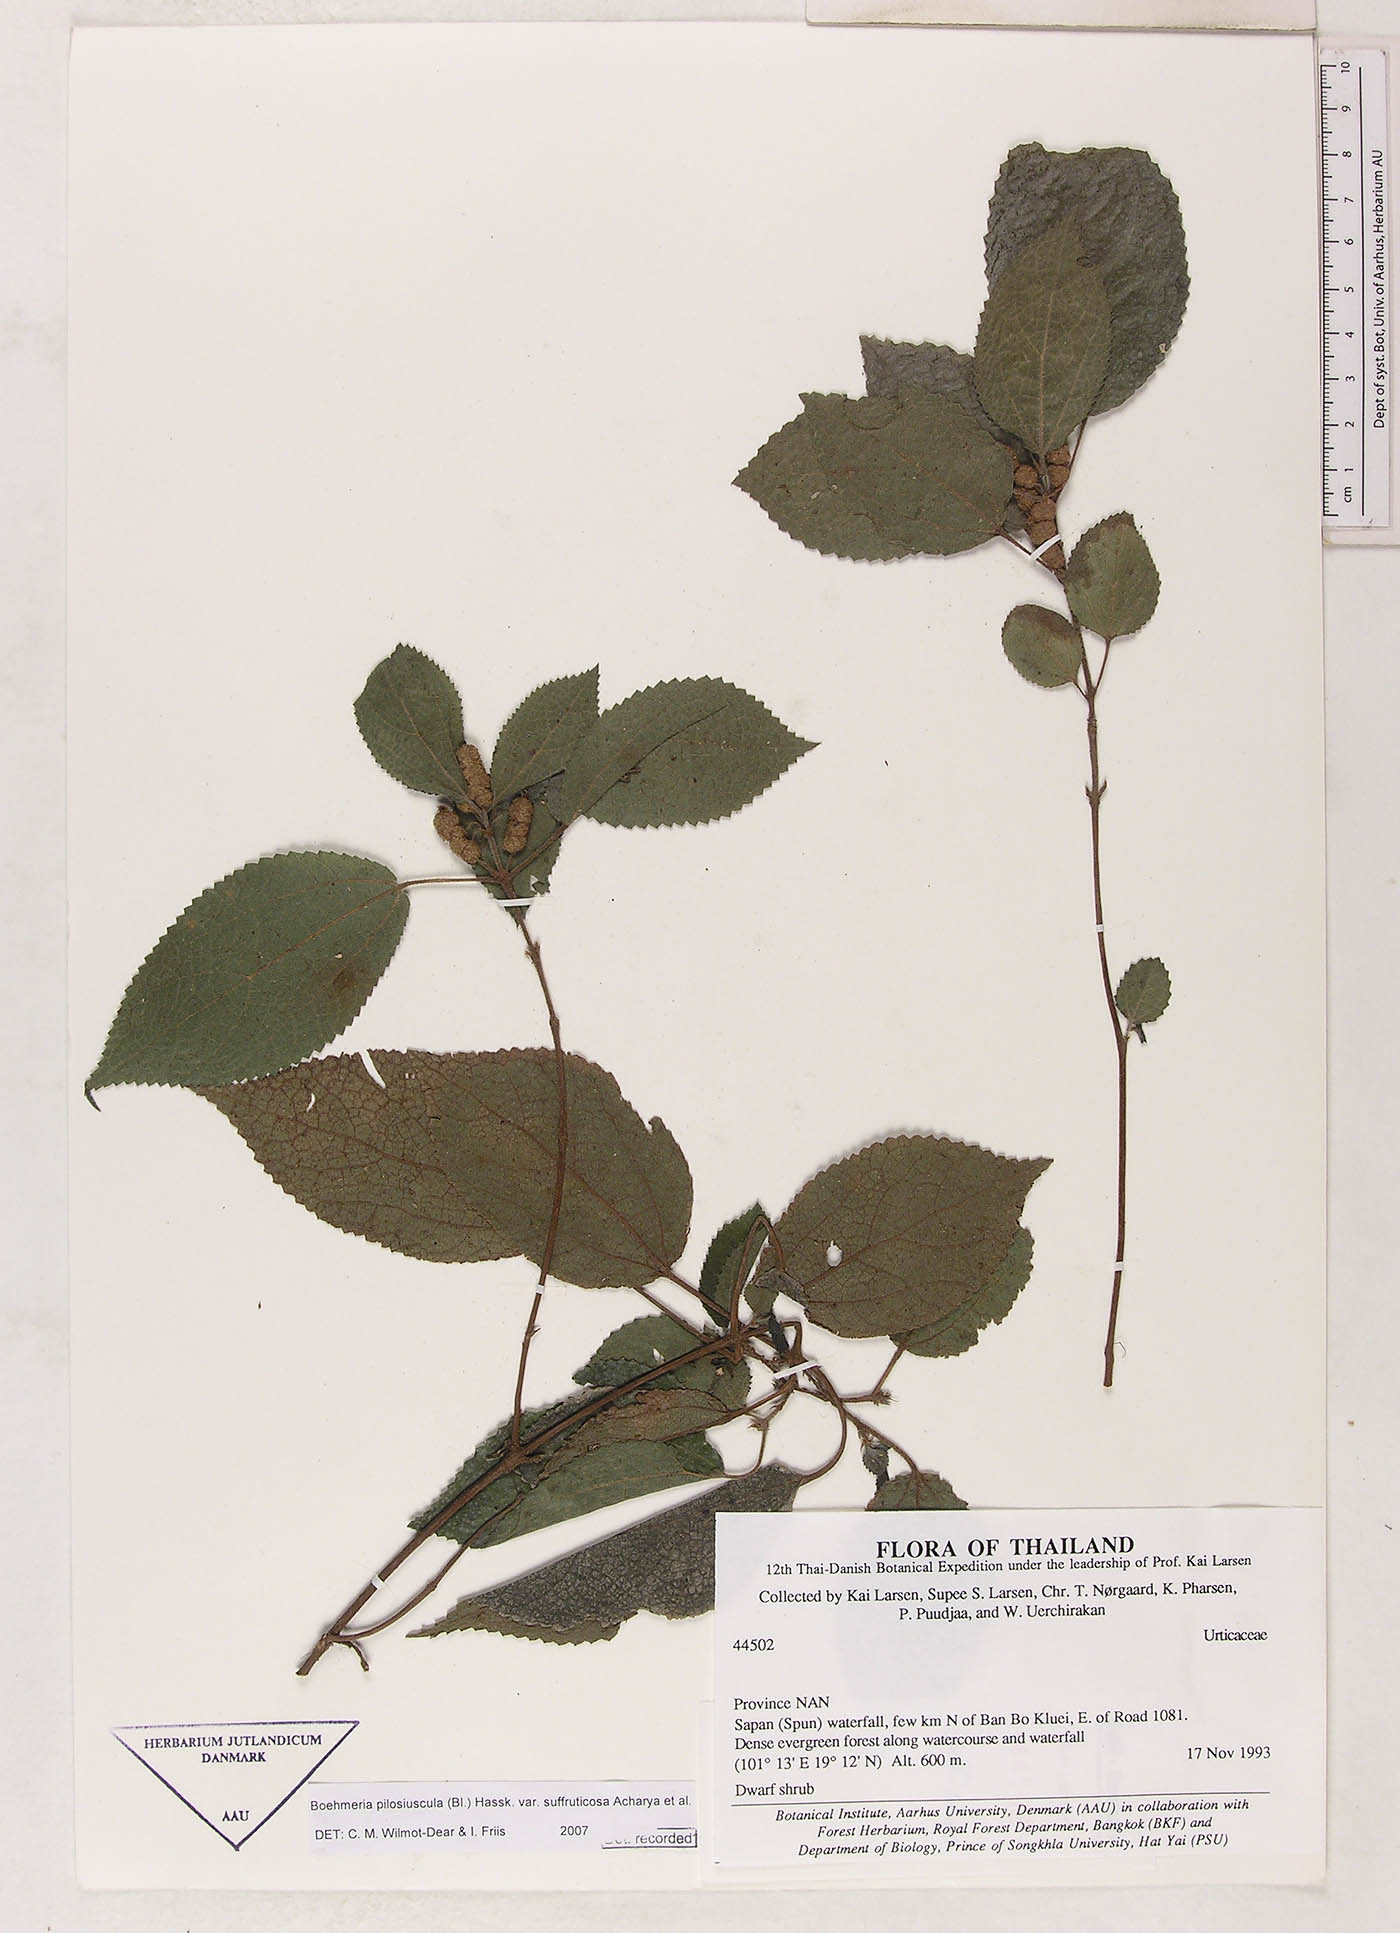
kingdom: Plantae
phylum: Tracheophyta
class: Magnoliopsida
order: Rosales
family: Urticaceae
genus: Boehmeria
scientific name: Boehmeria pilosiuscula
